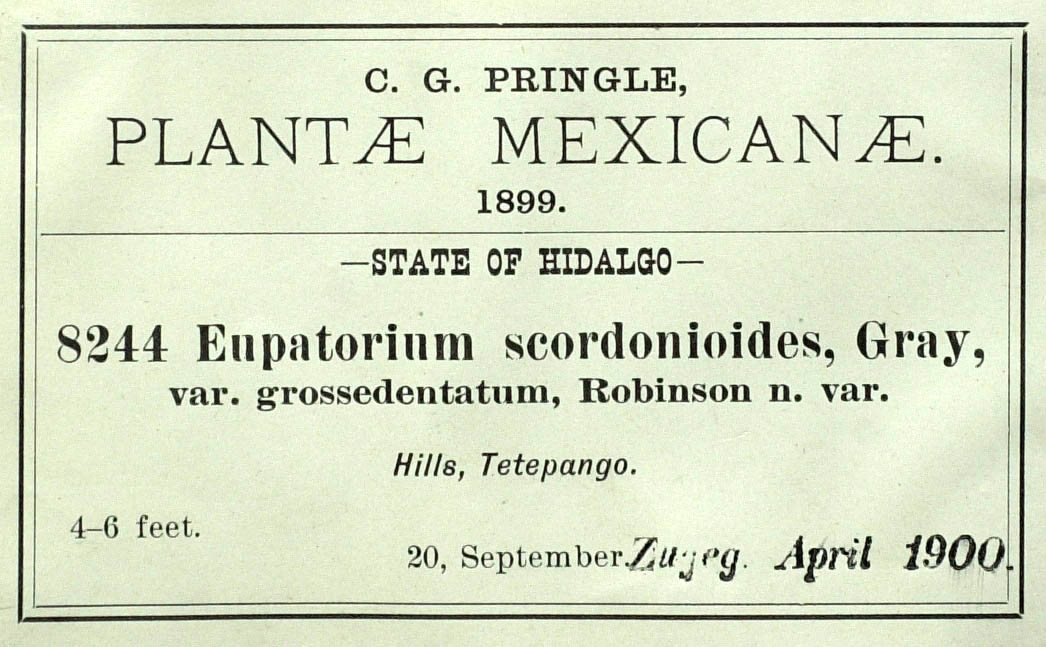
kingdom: Plantae
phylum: Tracheophyta
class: Magnoliopsida
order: Asterales
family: Asteraceae
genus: Ageratina
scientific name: Ageratina scorodonioides
